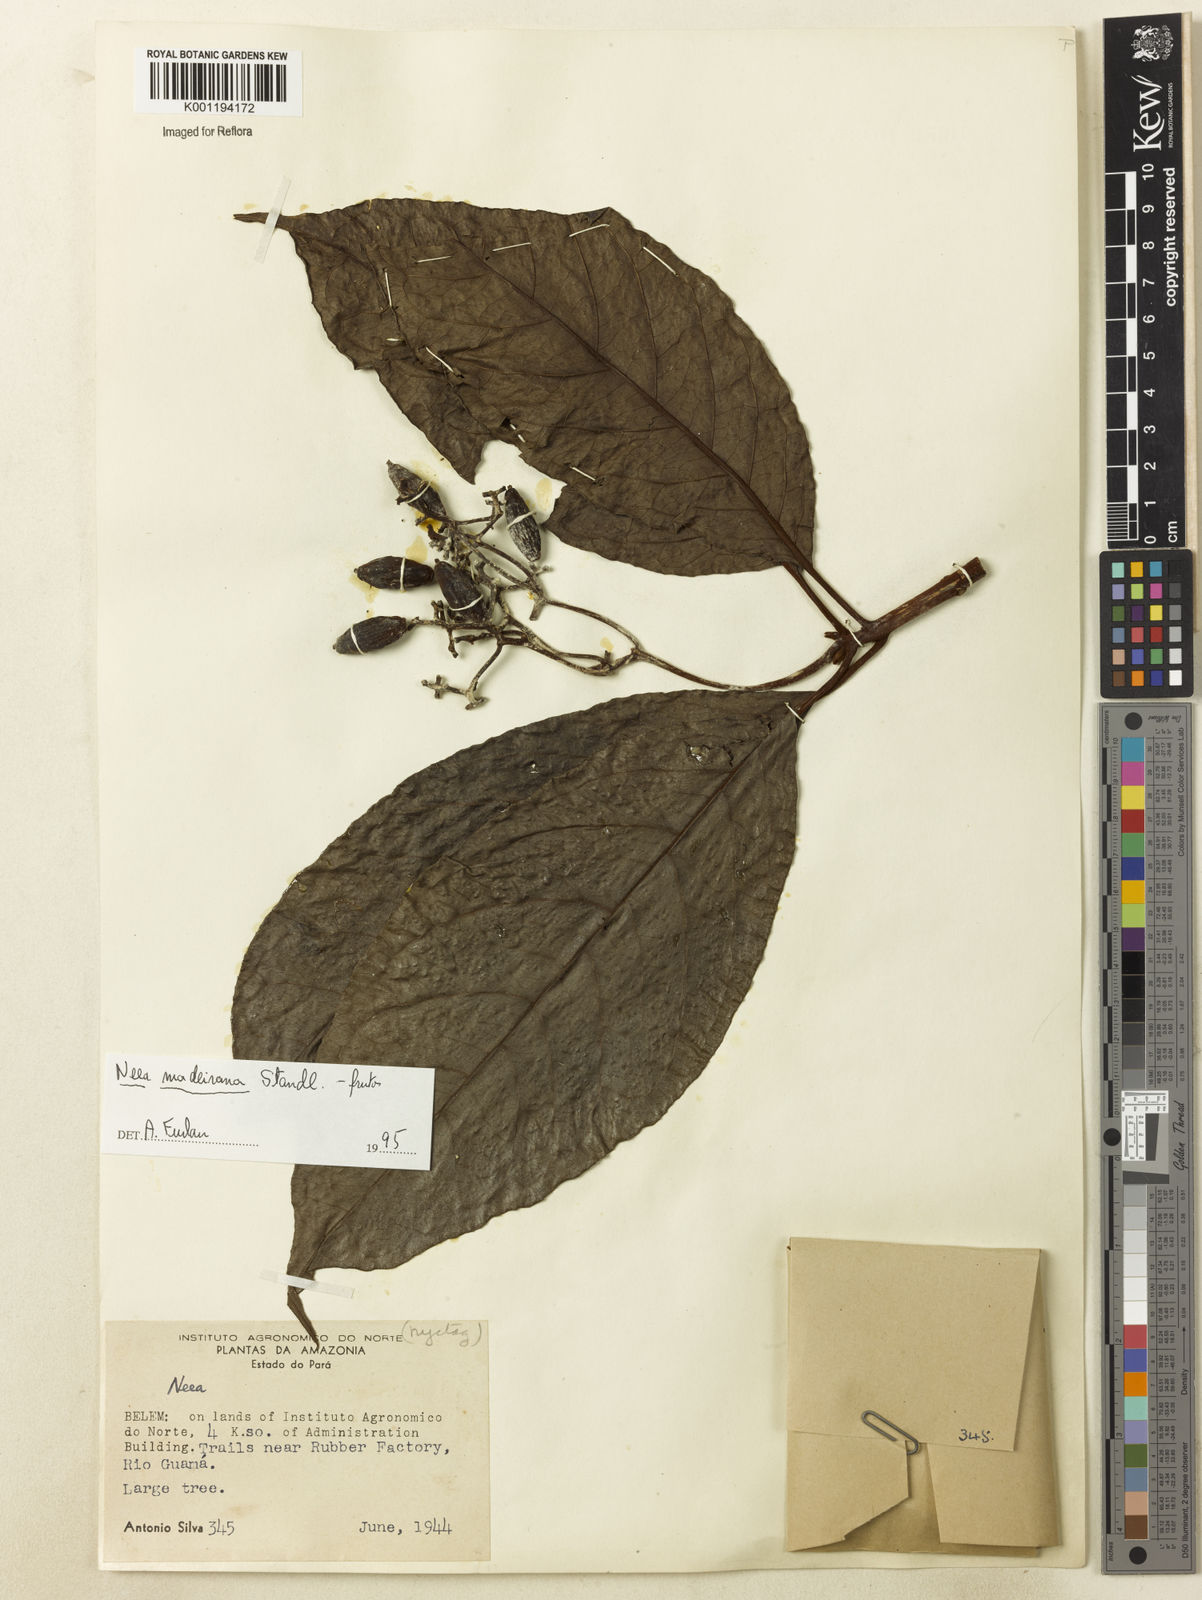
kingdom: Plantae
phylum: Tracheophyta
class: Magnoliopsida
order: Caryophyllales
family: Nyctaginaceae
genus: Neea
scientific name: Neea madeirana
